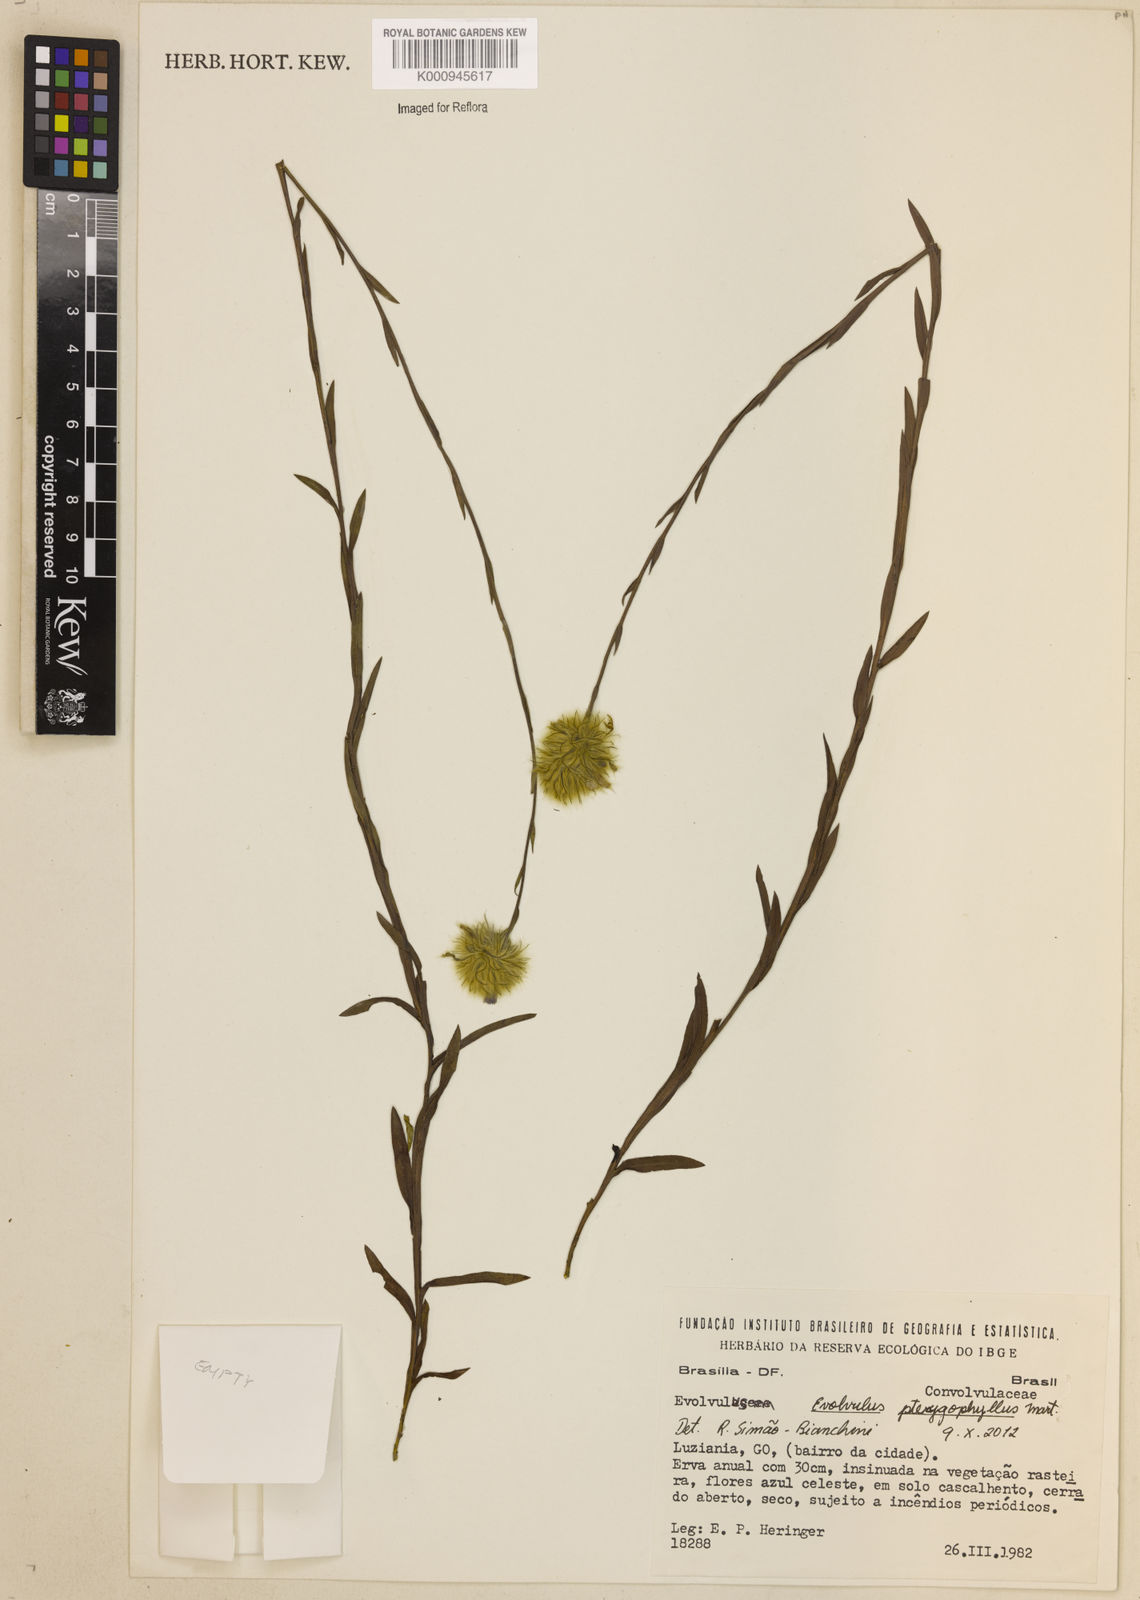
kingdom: Plantae
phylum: Tracheophyta
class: Magnoliopsida
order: Solanales
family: Convolvulaceae
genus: Evolvulus
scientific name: Evolvulus pterygophyllus
